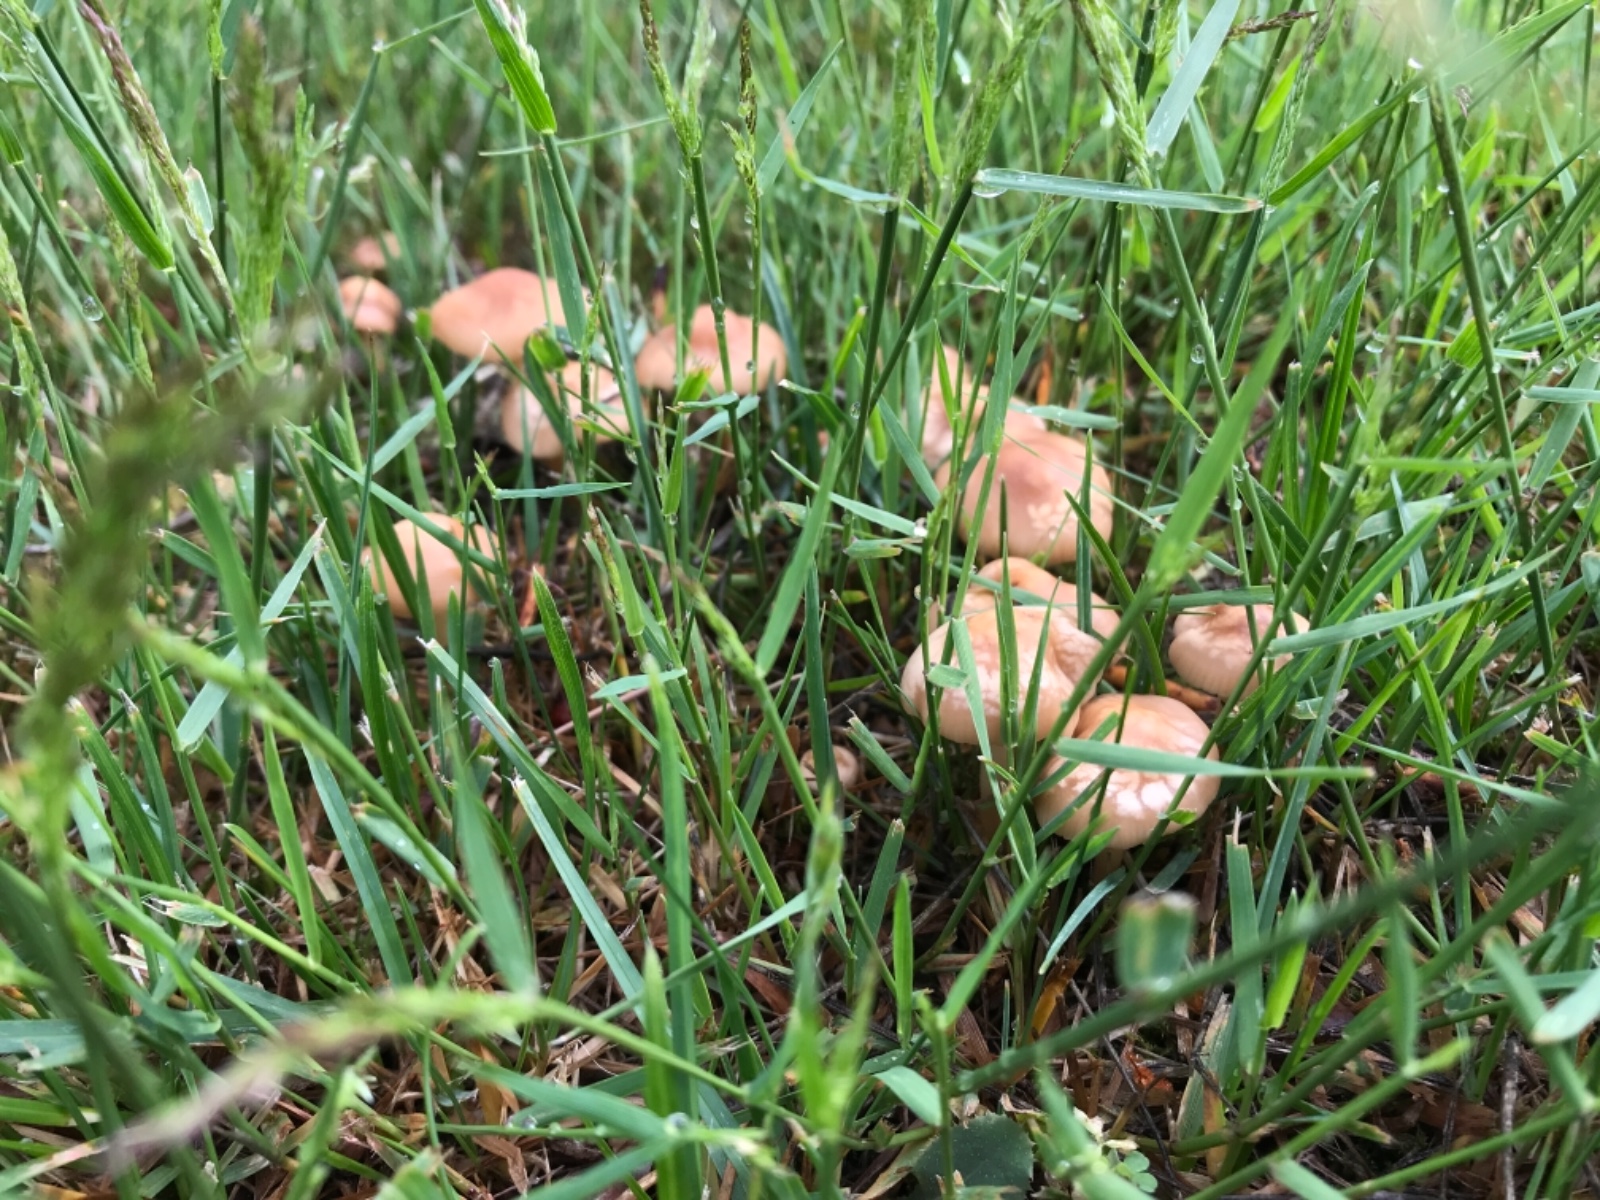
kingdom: Fungi
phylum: Basidiomycota
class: Agaricomycetes
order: Agaricales
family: Marasmiaceae
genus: Marasmius
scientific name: Marasmius oreades
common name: elledans-bruskhat
